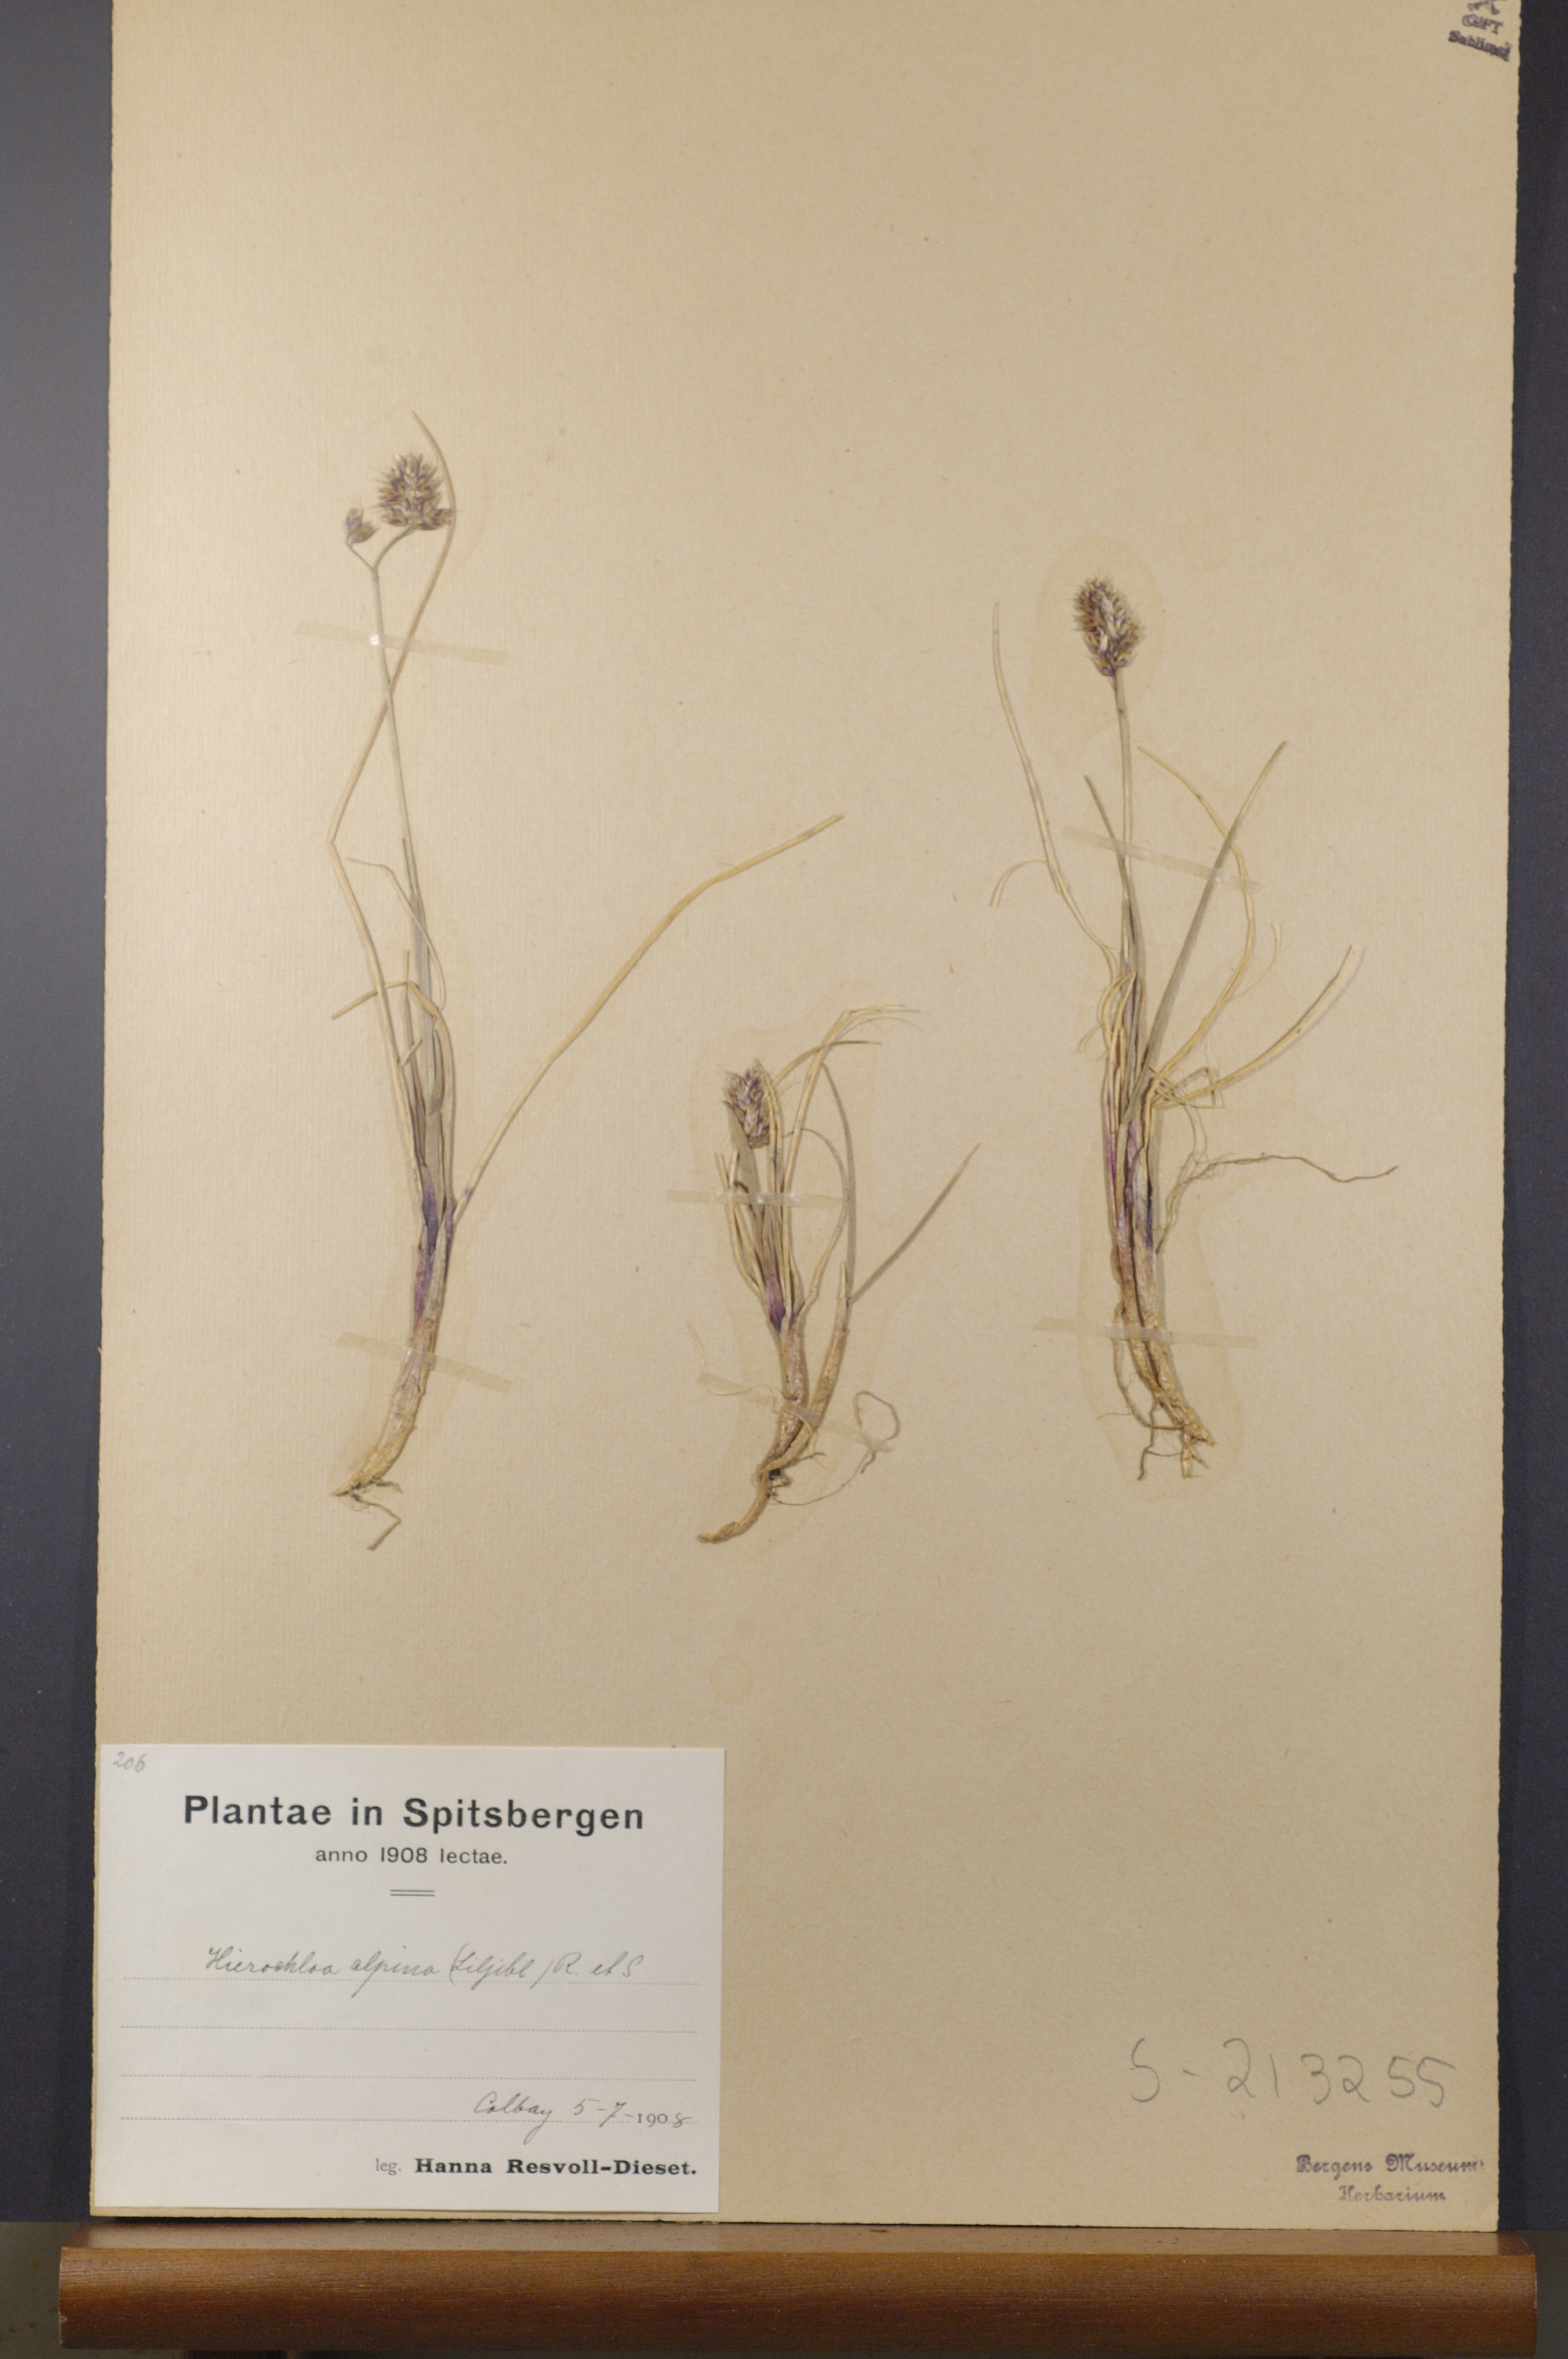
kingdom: Plantae
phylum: Tracheophyta
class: Liliopsida
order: Poales
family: Poaceae
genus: Anthoxanthum
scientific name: Anthoxanthum monticola
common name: Alpine sweetgrass
